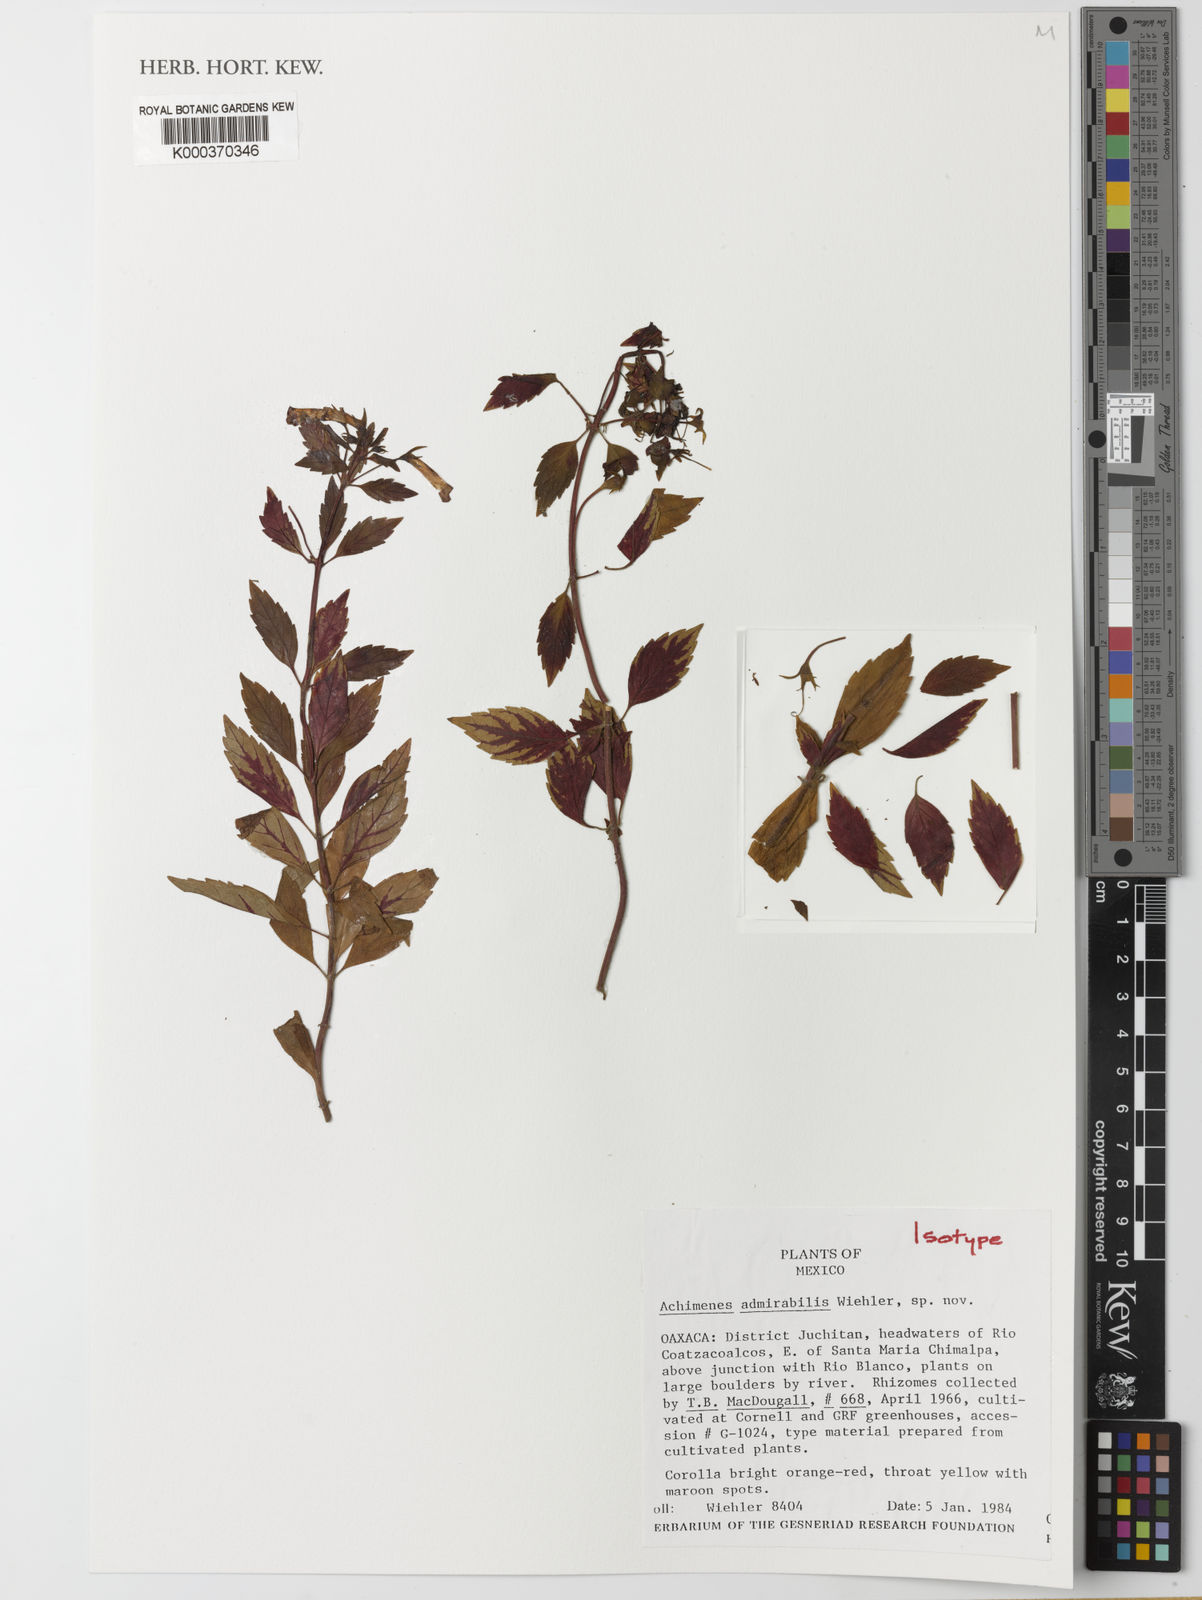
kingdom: Plantae
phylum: Tracheophyta
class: Magnoliopsida
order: Lamiales
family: Gesneriaceae
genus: Achimenes
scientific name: Achimenes admirabilis
